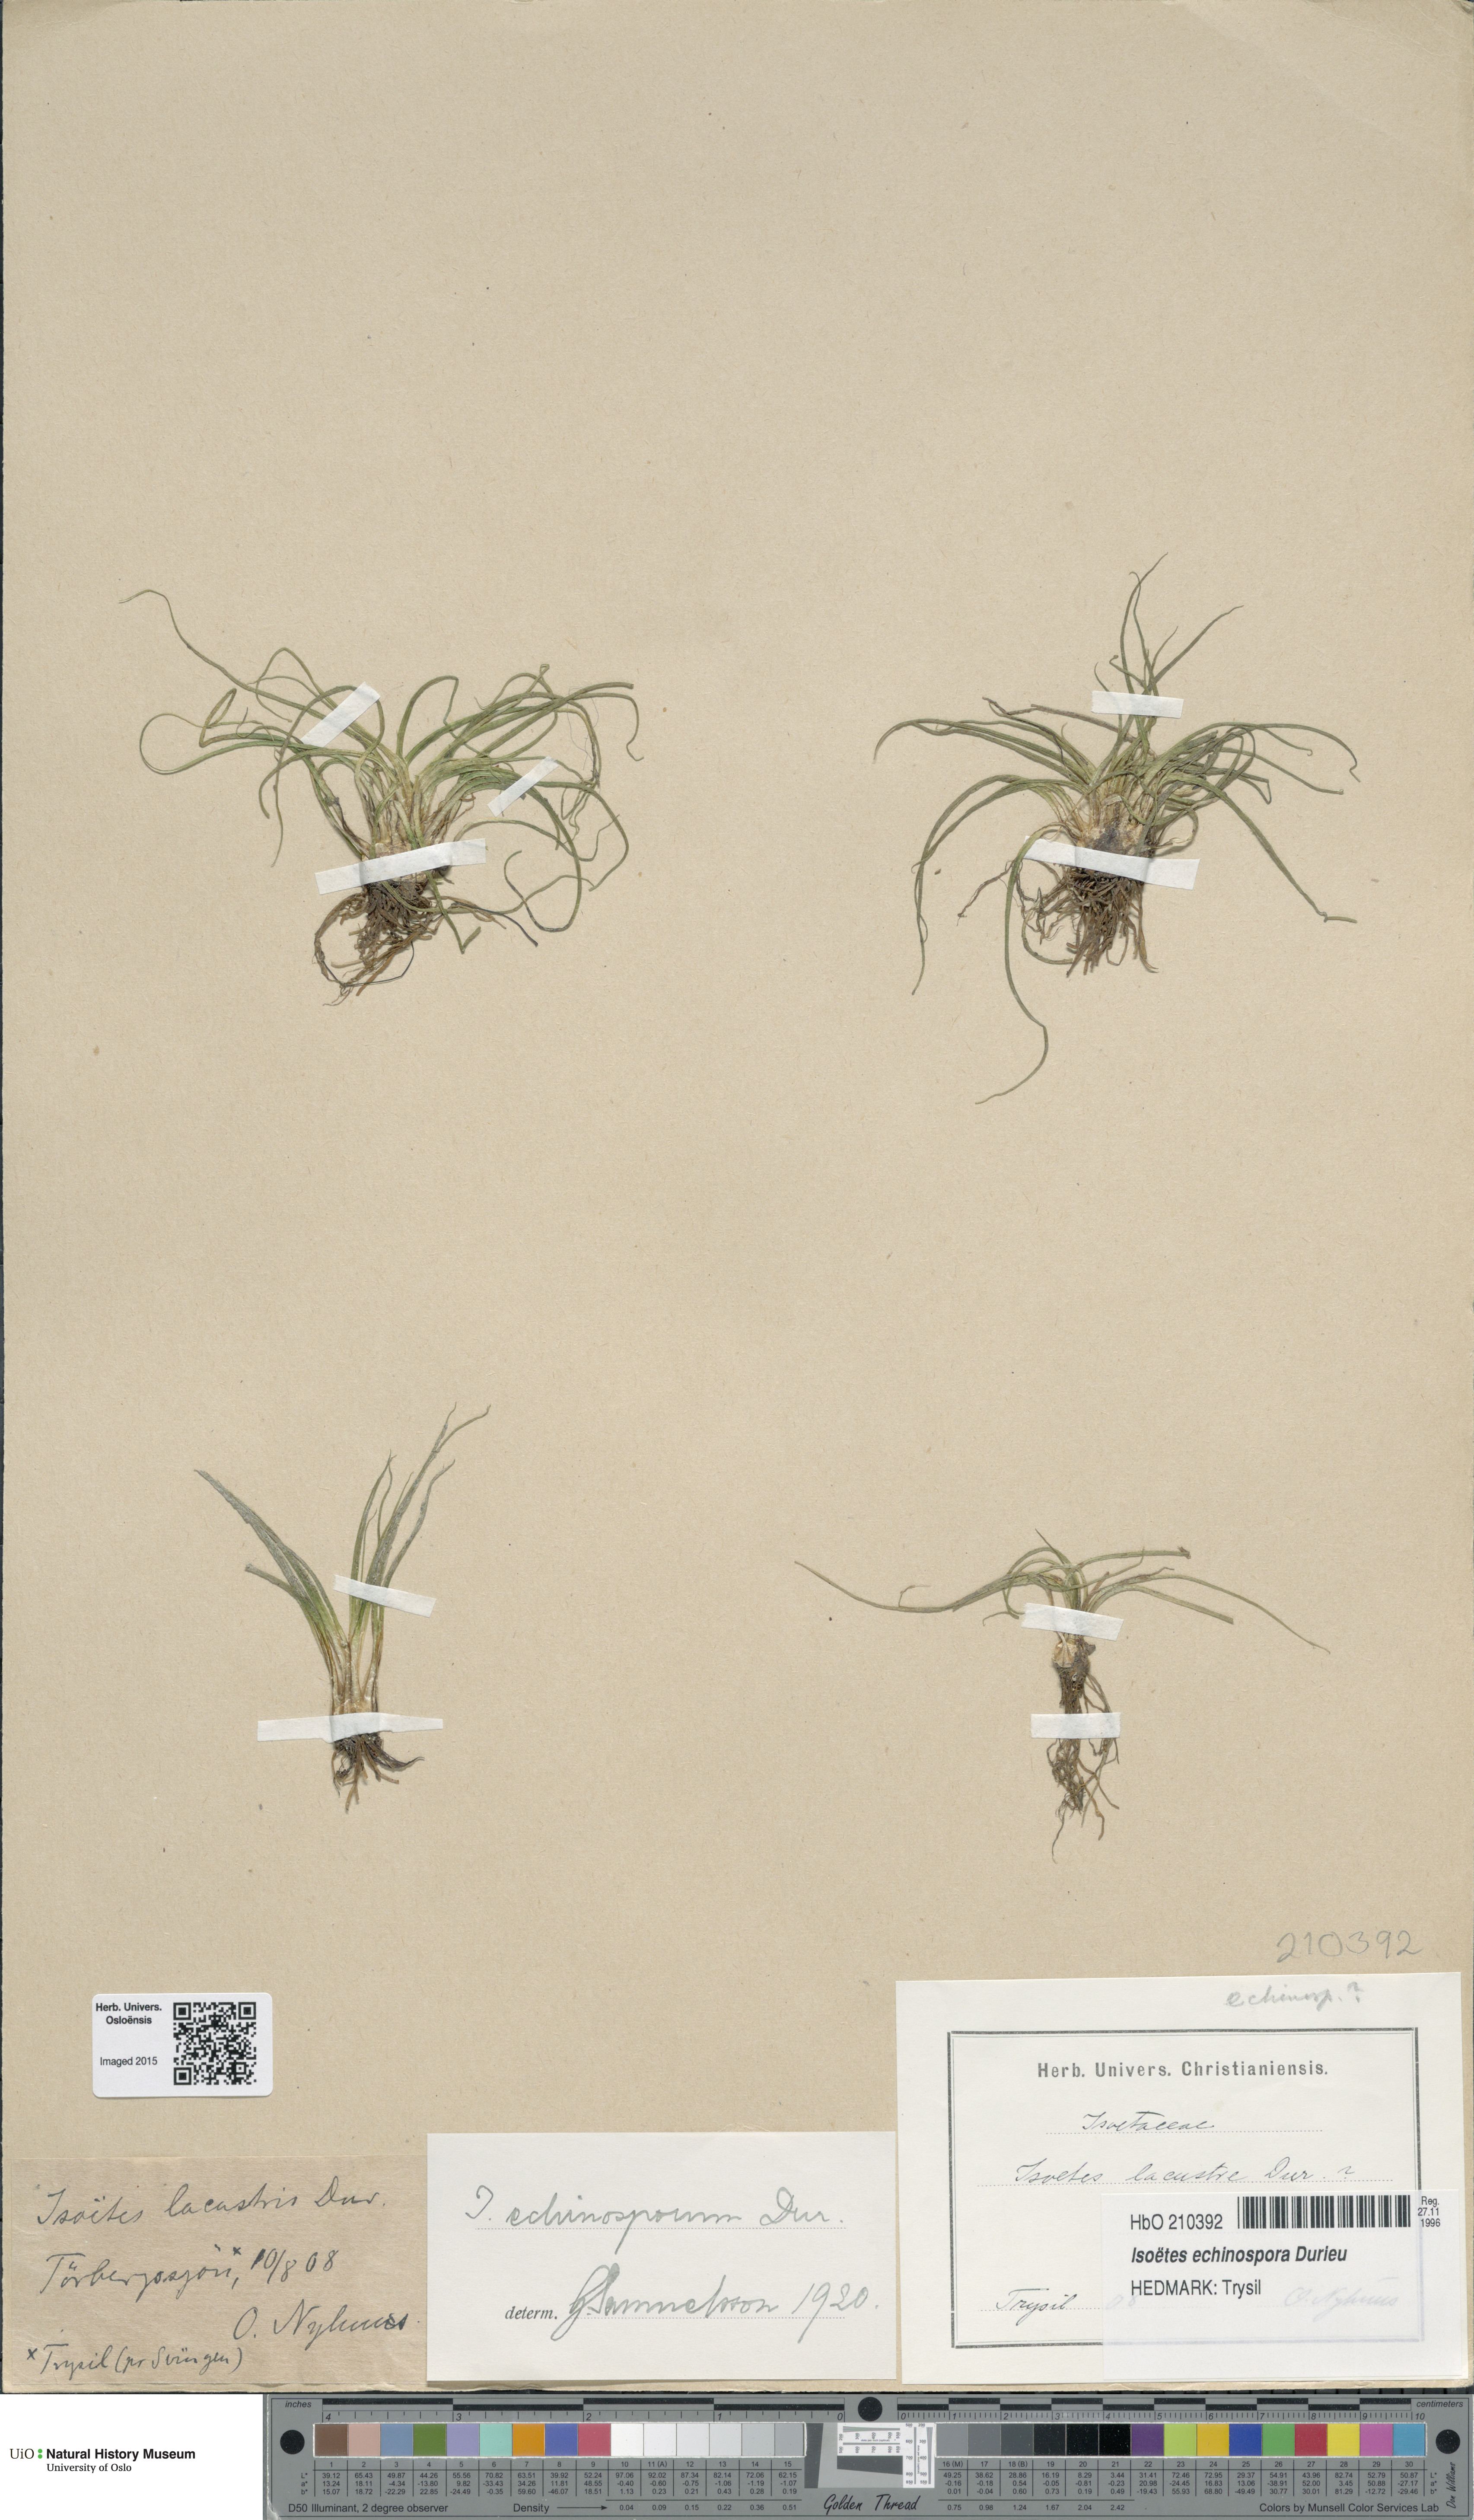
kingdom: Plantae
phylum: Tracheophyta
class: Lycopodiopsida
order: Isoetales
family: Isoetaceae
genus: Isoetes
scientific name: Isoetes echinospora
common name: Spring quillwort
